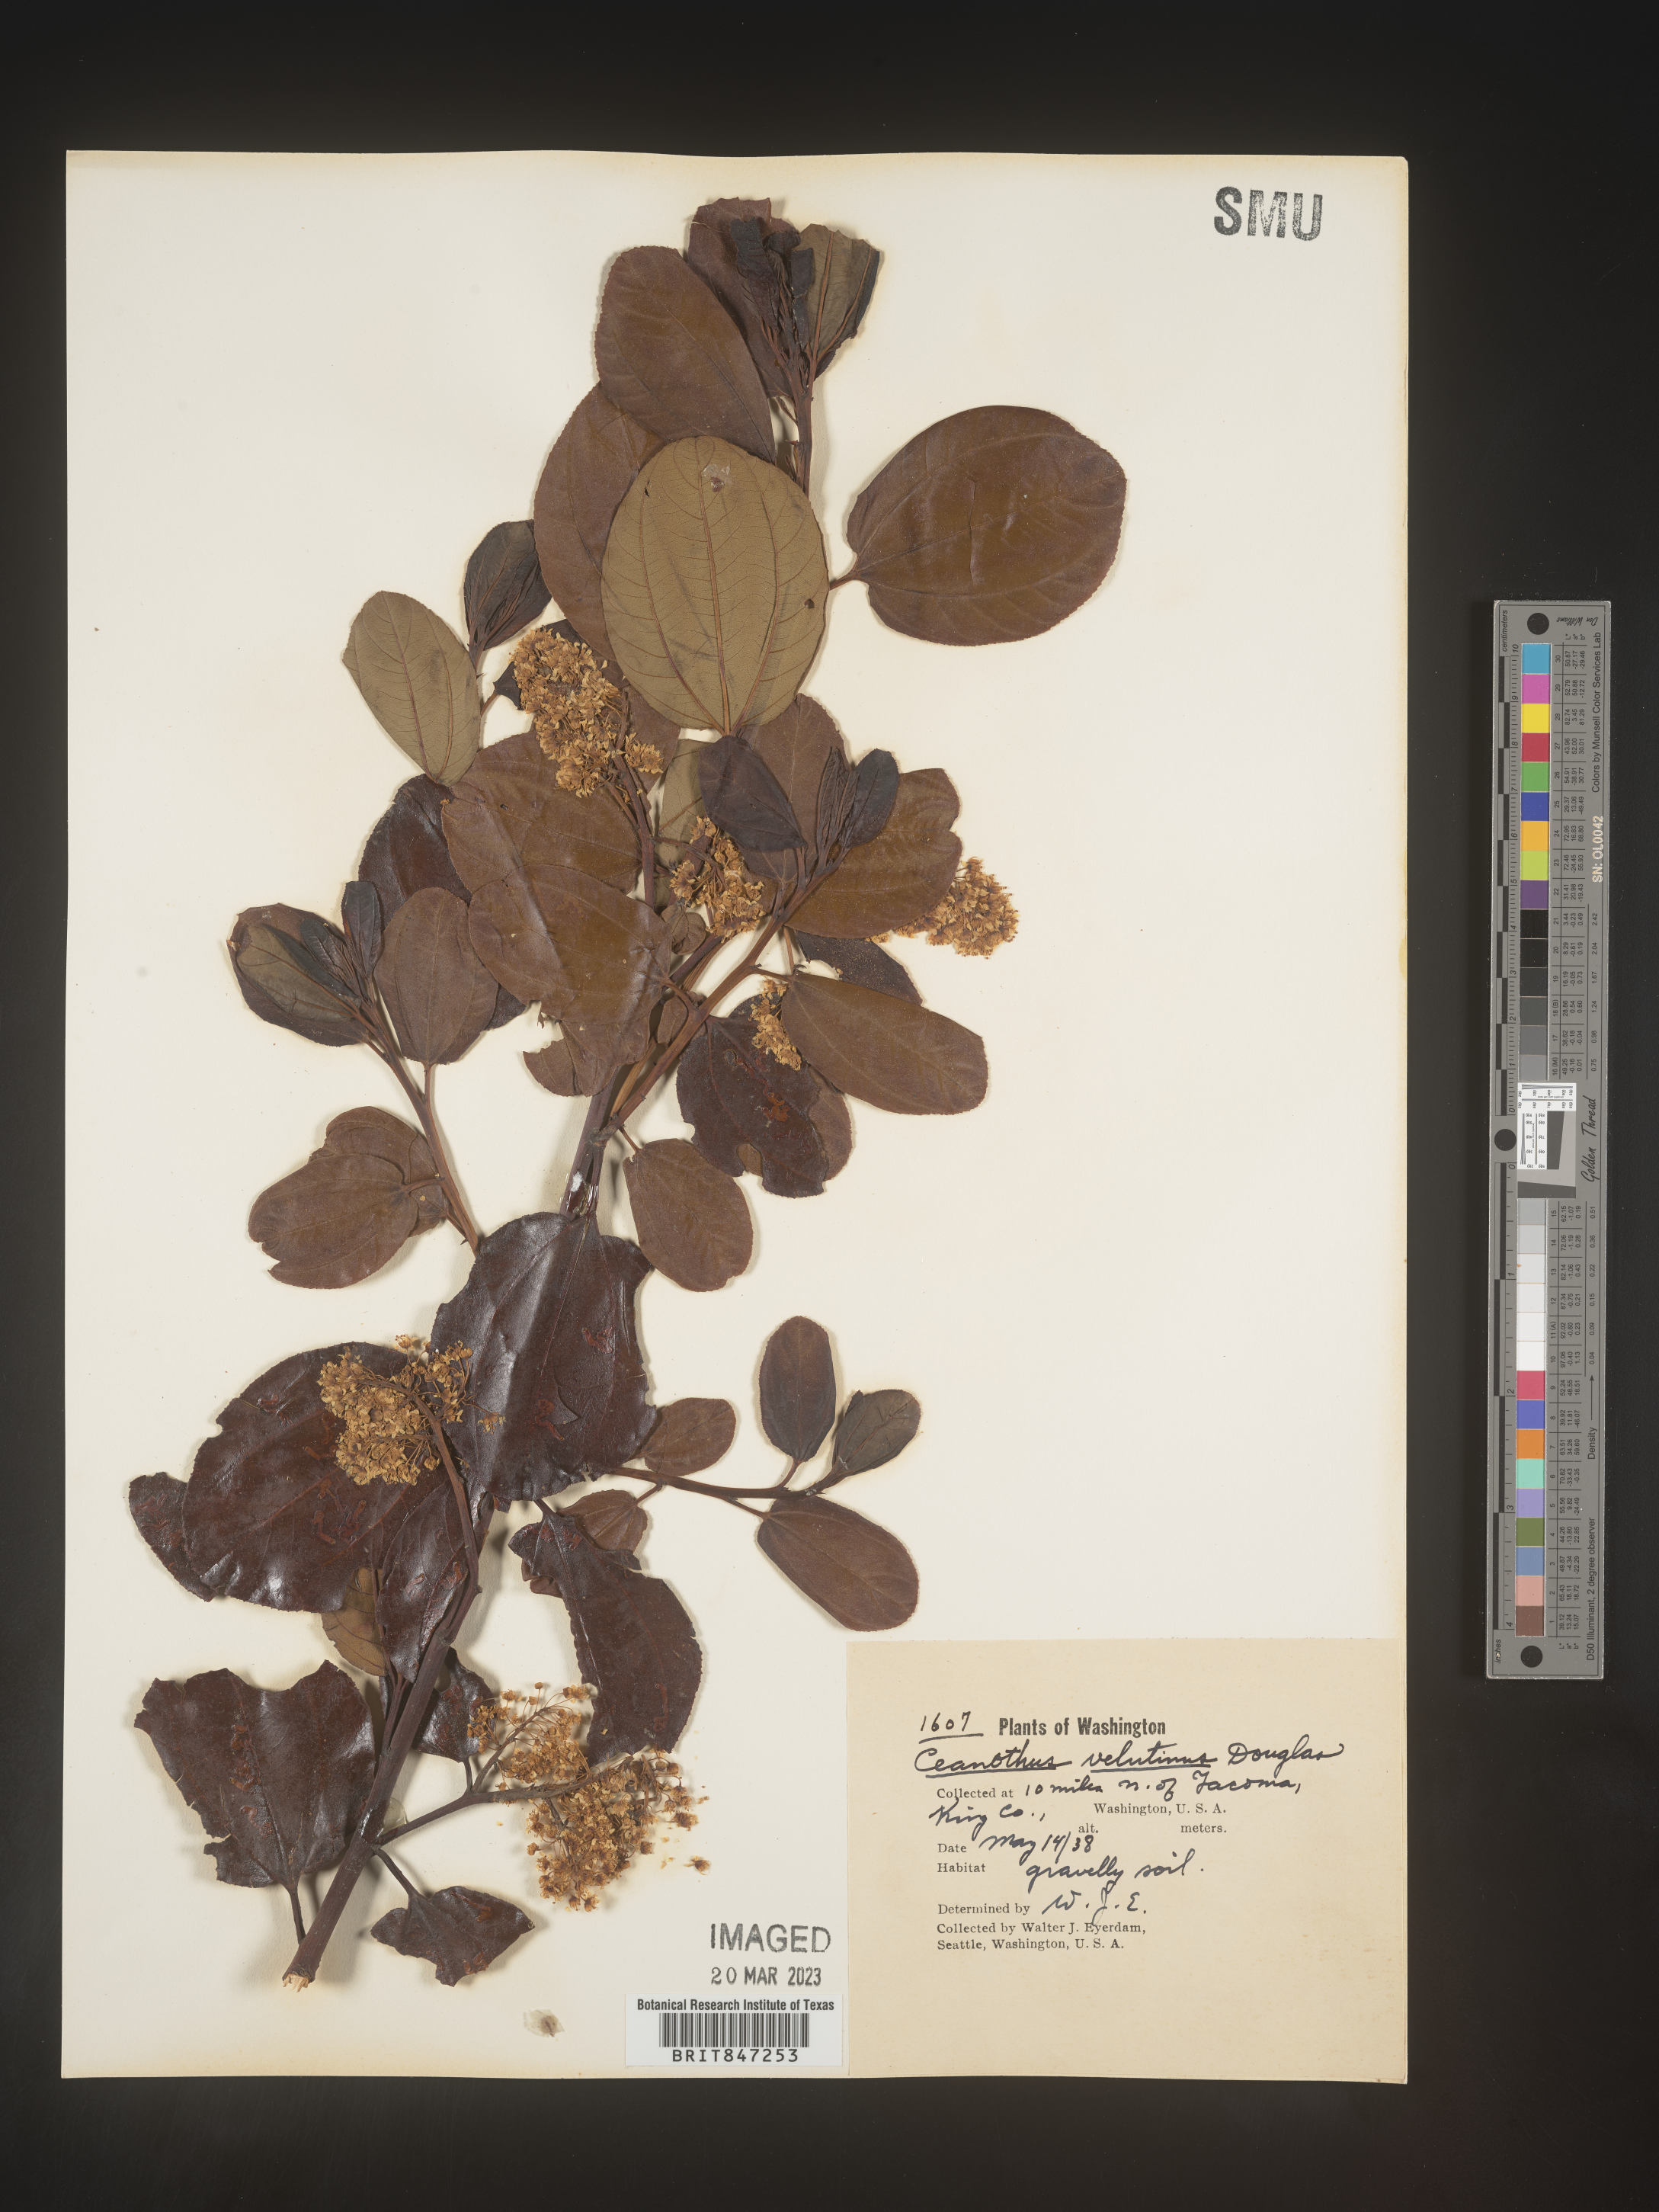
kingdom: Plantae
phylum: Tracheophyta
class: Magnoliopsida
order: Rosales
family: Rhamnaceae
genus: Ceanothus
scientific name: Ceanothus velutinus
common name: Snowbrush
